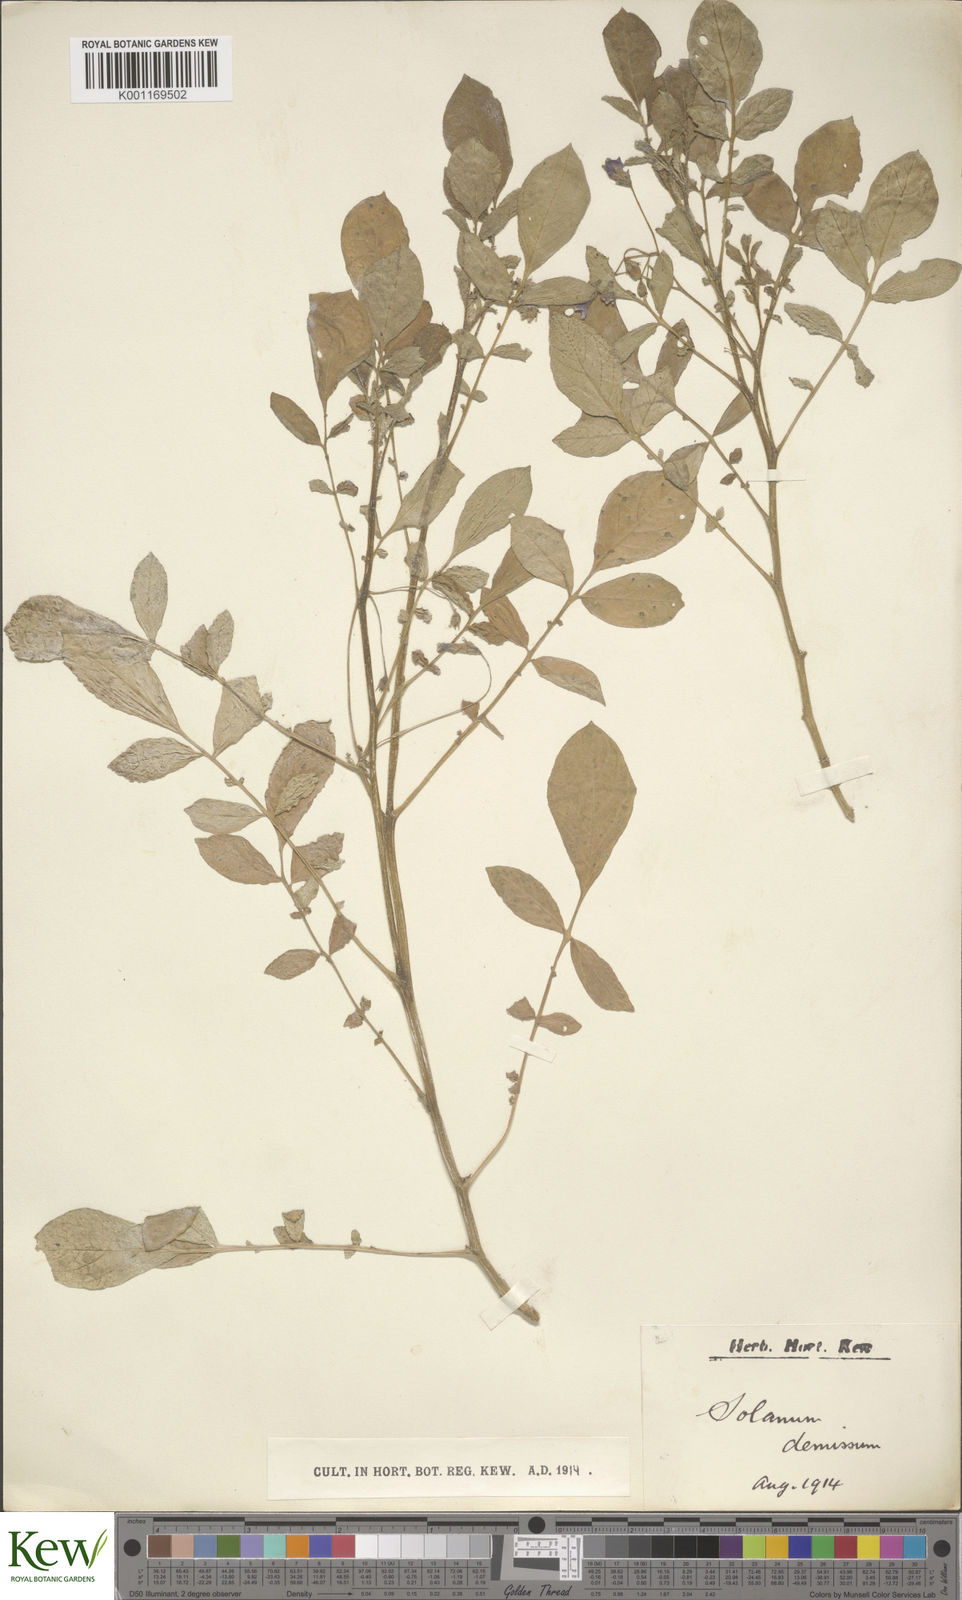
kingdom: Plantae
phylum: Tracheophyta
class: Magnoliopsida
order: Solanales
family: Solanaceae
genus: Solanum
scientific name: Solanum demissum
